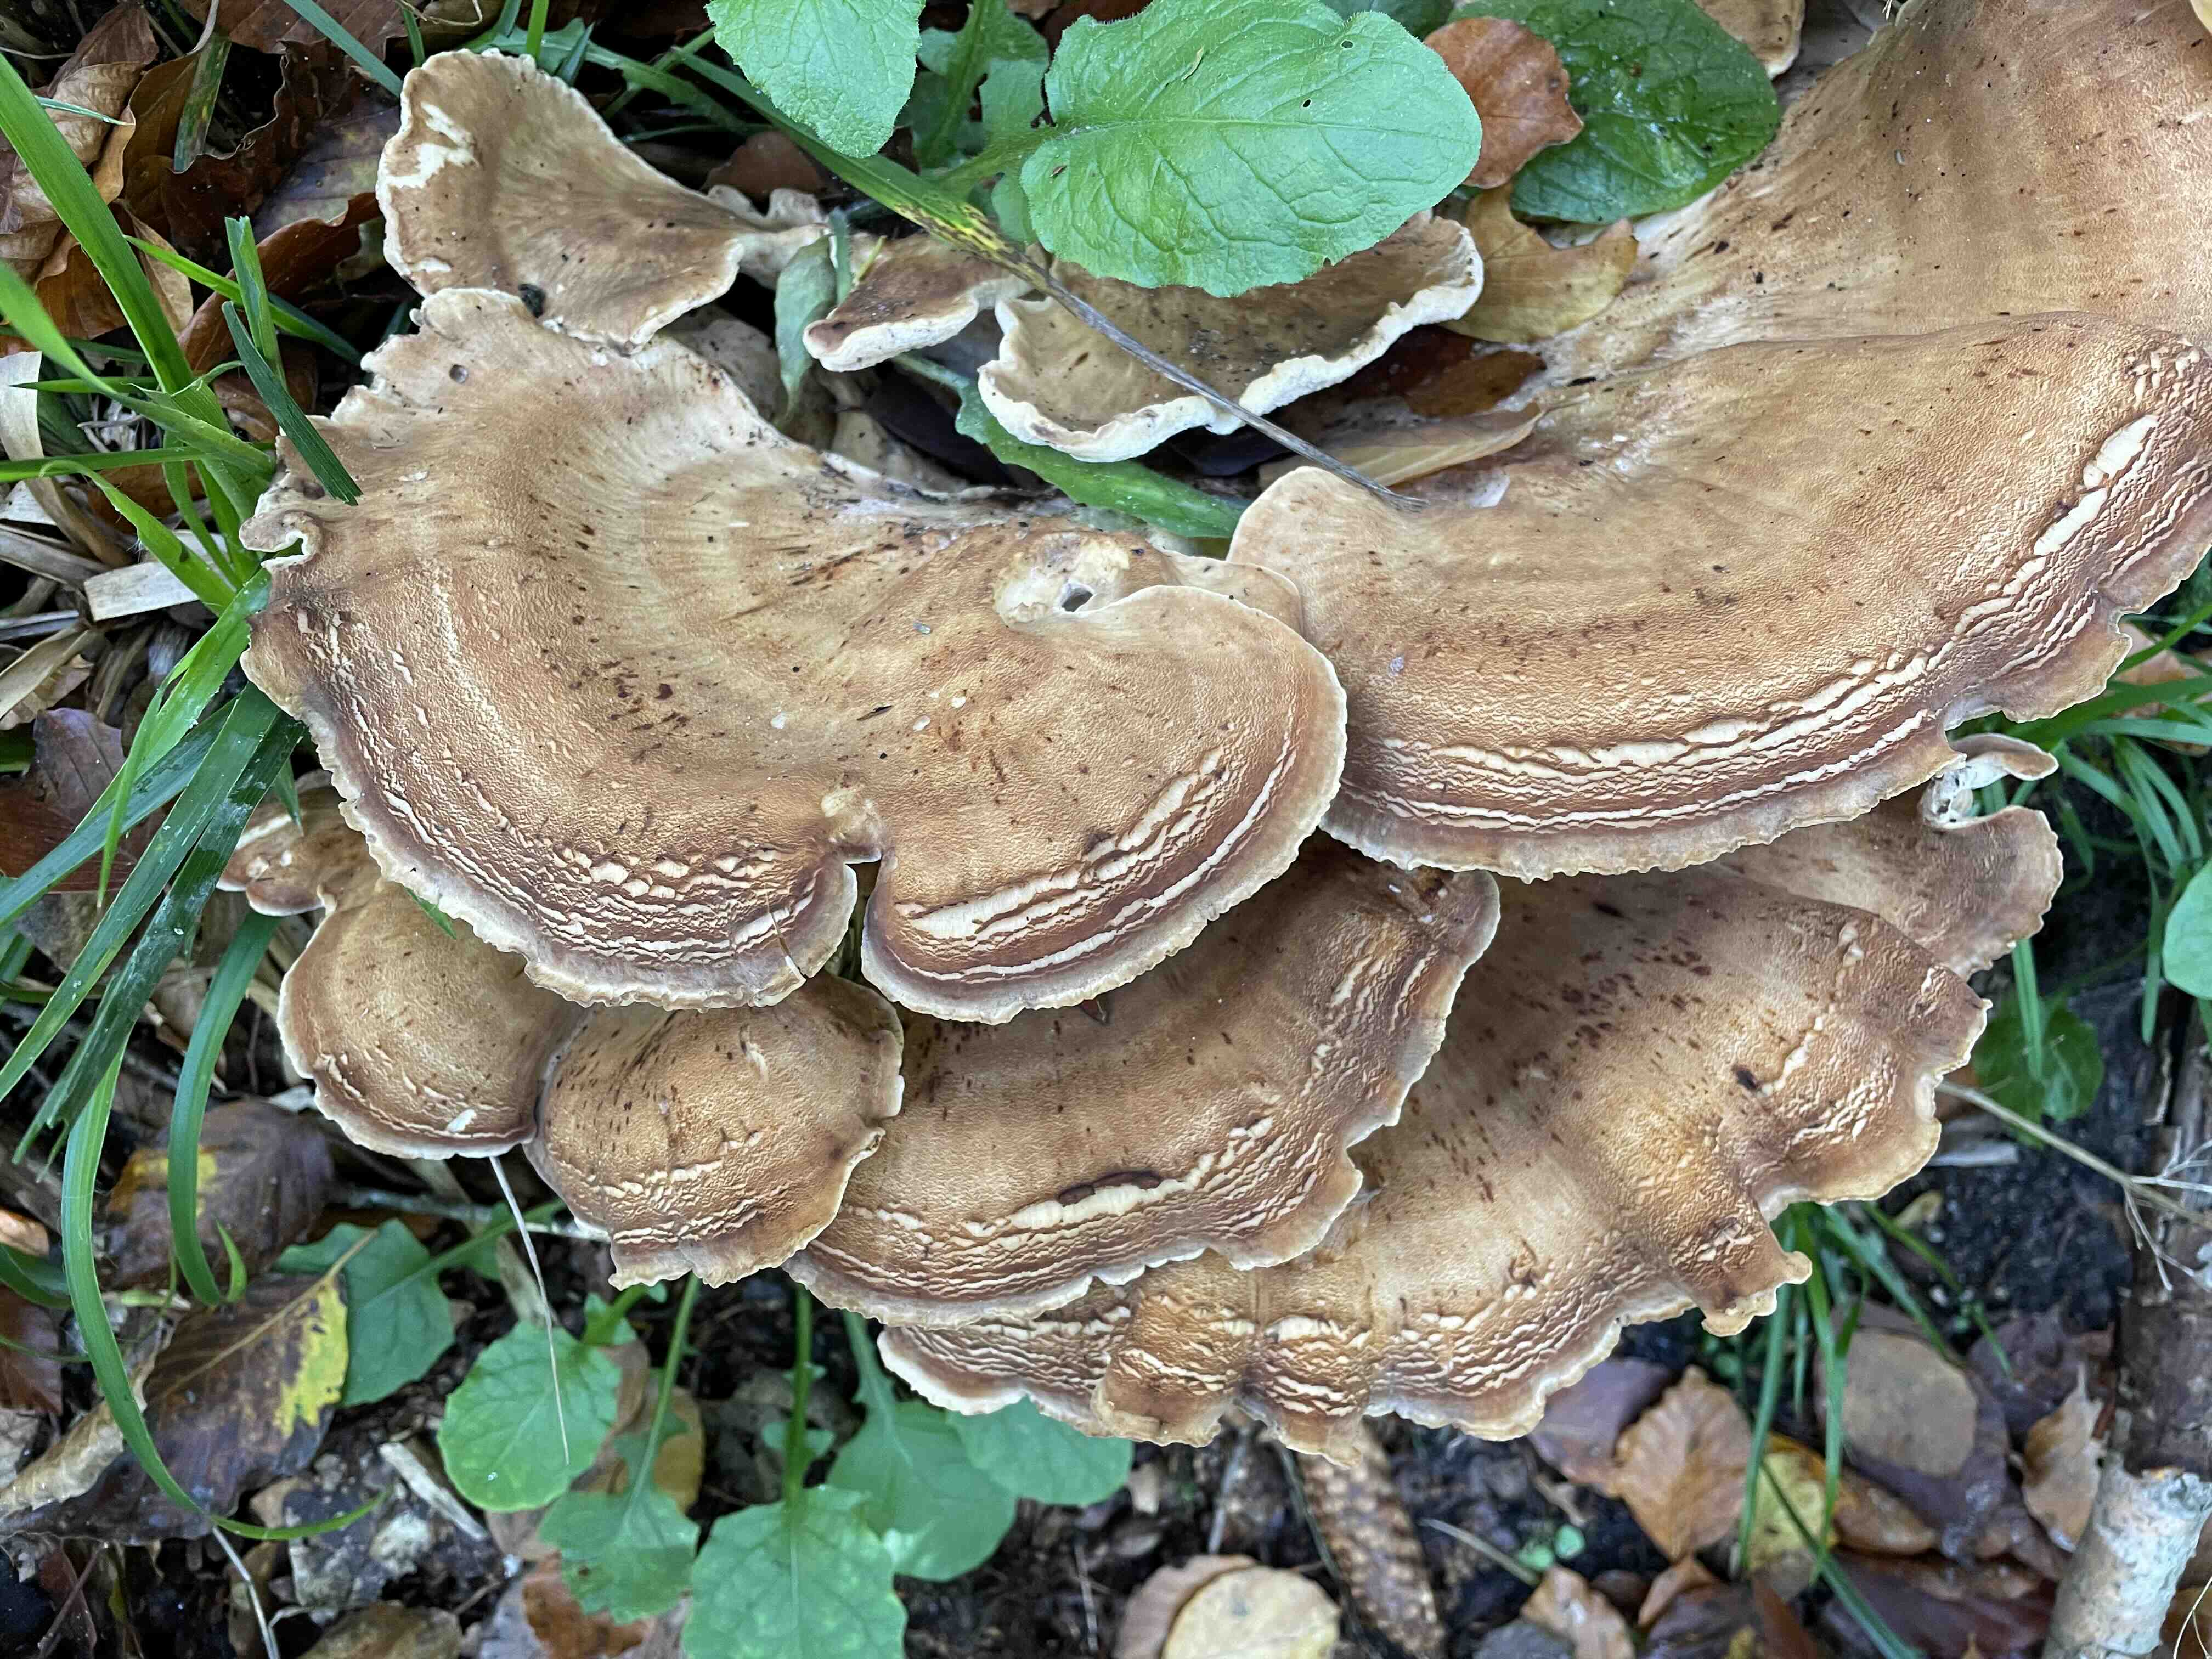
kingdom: Fungi
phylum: Basidiomycota
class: Agaricomycetes
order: Polyporales
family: Meripilaceae
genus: Meripilus
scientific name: Meripilus giganteus
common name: kæmpeporesvamp
